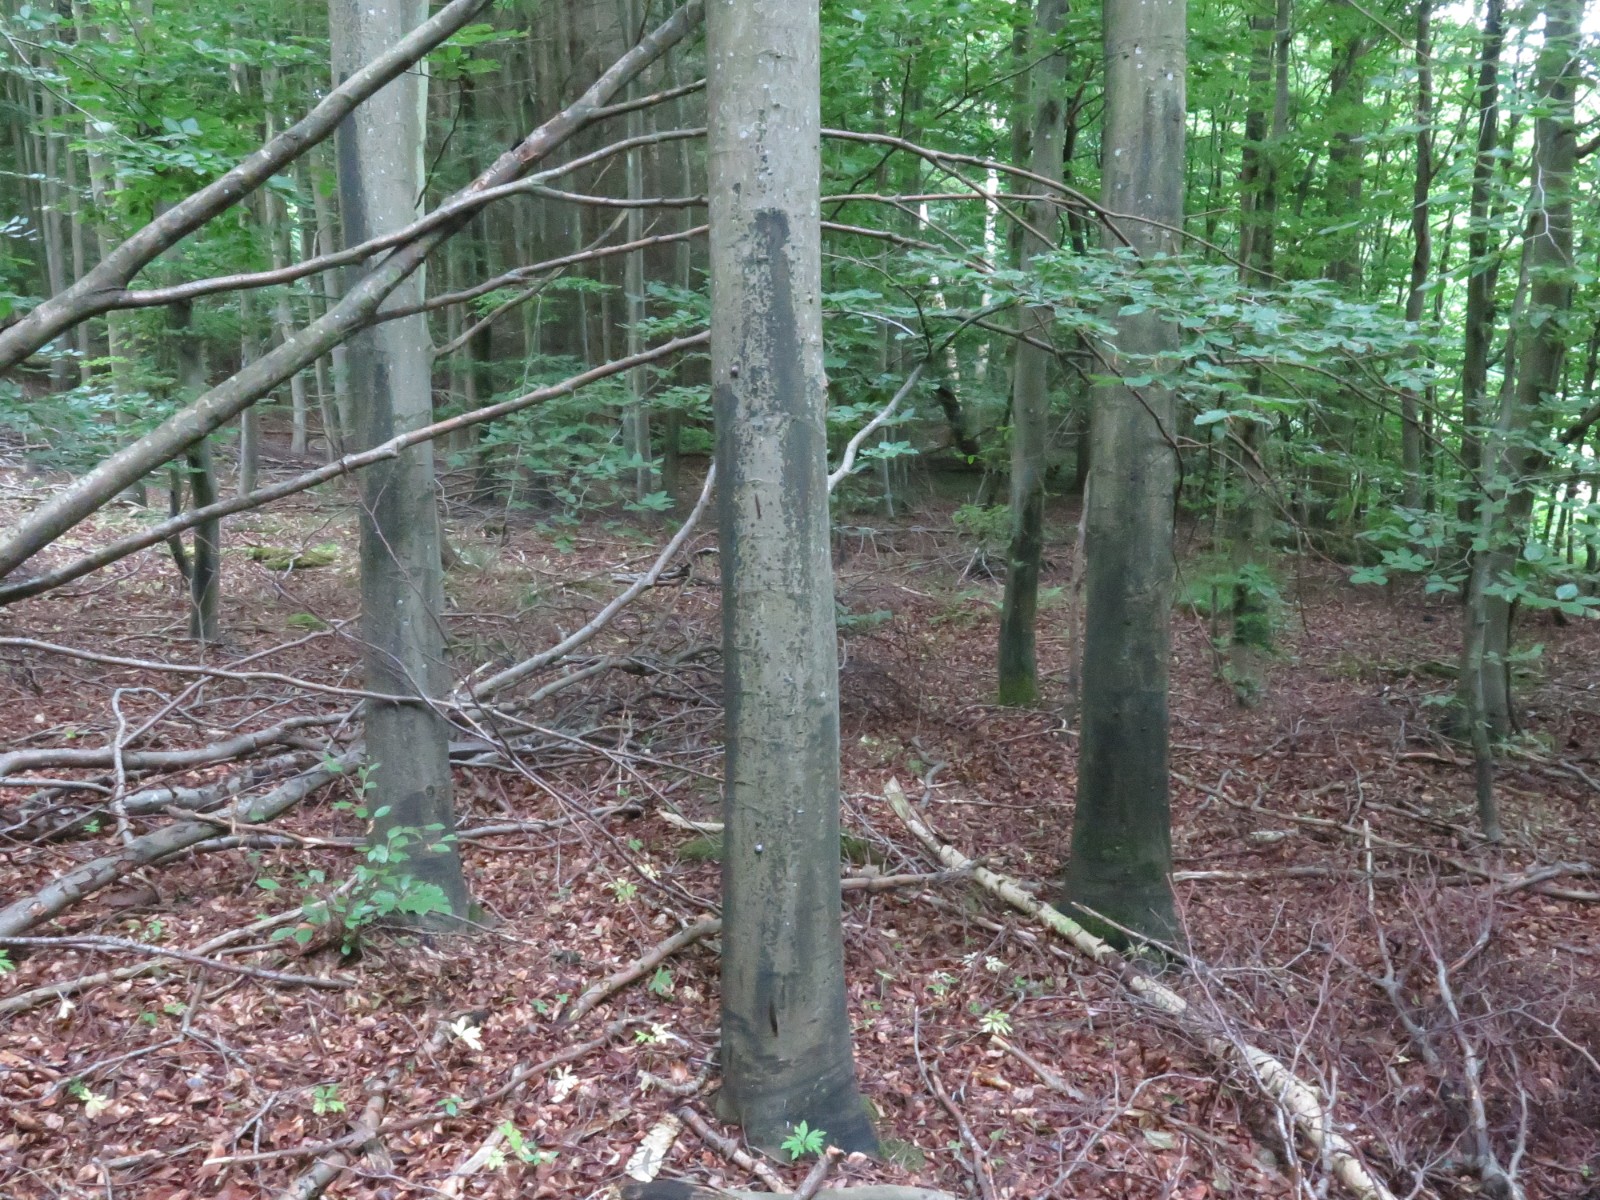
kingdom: Fungi
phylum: Ascomycota
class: Leotiomycetes
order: Rhytismatales
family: Ascodichaenaceae
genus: Ascodichaena
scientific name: Ascodichaena rugosa
